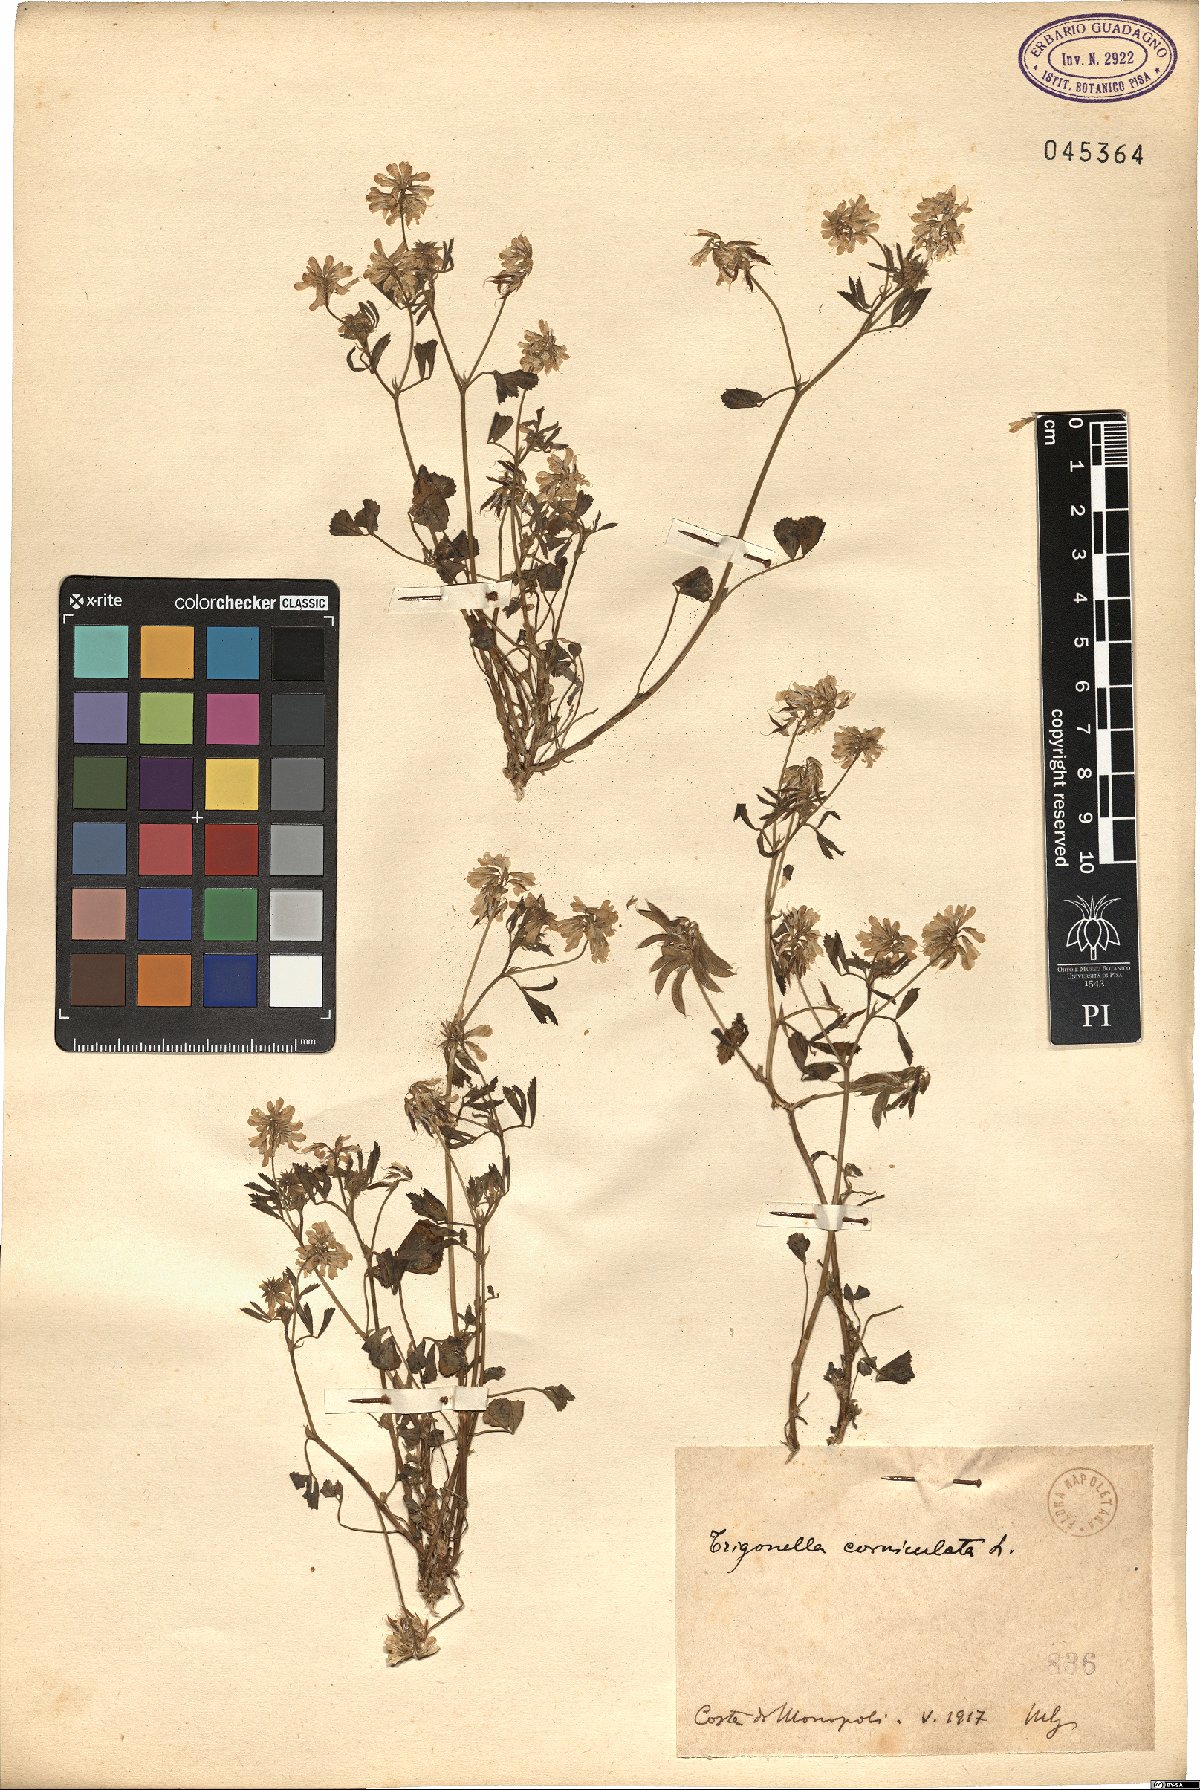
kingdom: Plantae
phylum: Tracheophyta
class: Magnoliopsida
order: Fabales
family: Fabaceae
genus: Trigonella
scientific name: Trigonella balansae
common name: Sickle-fruited fenugreek
